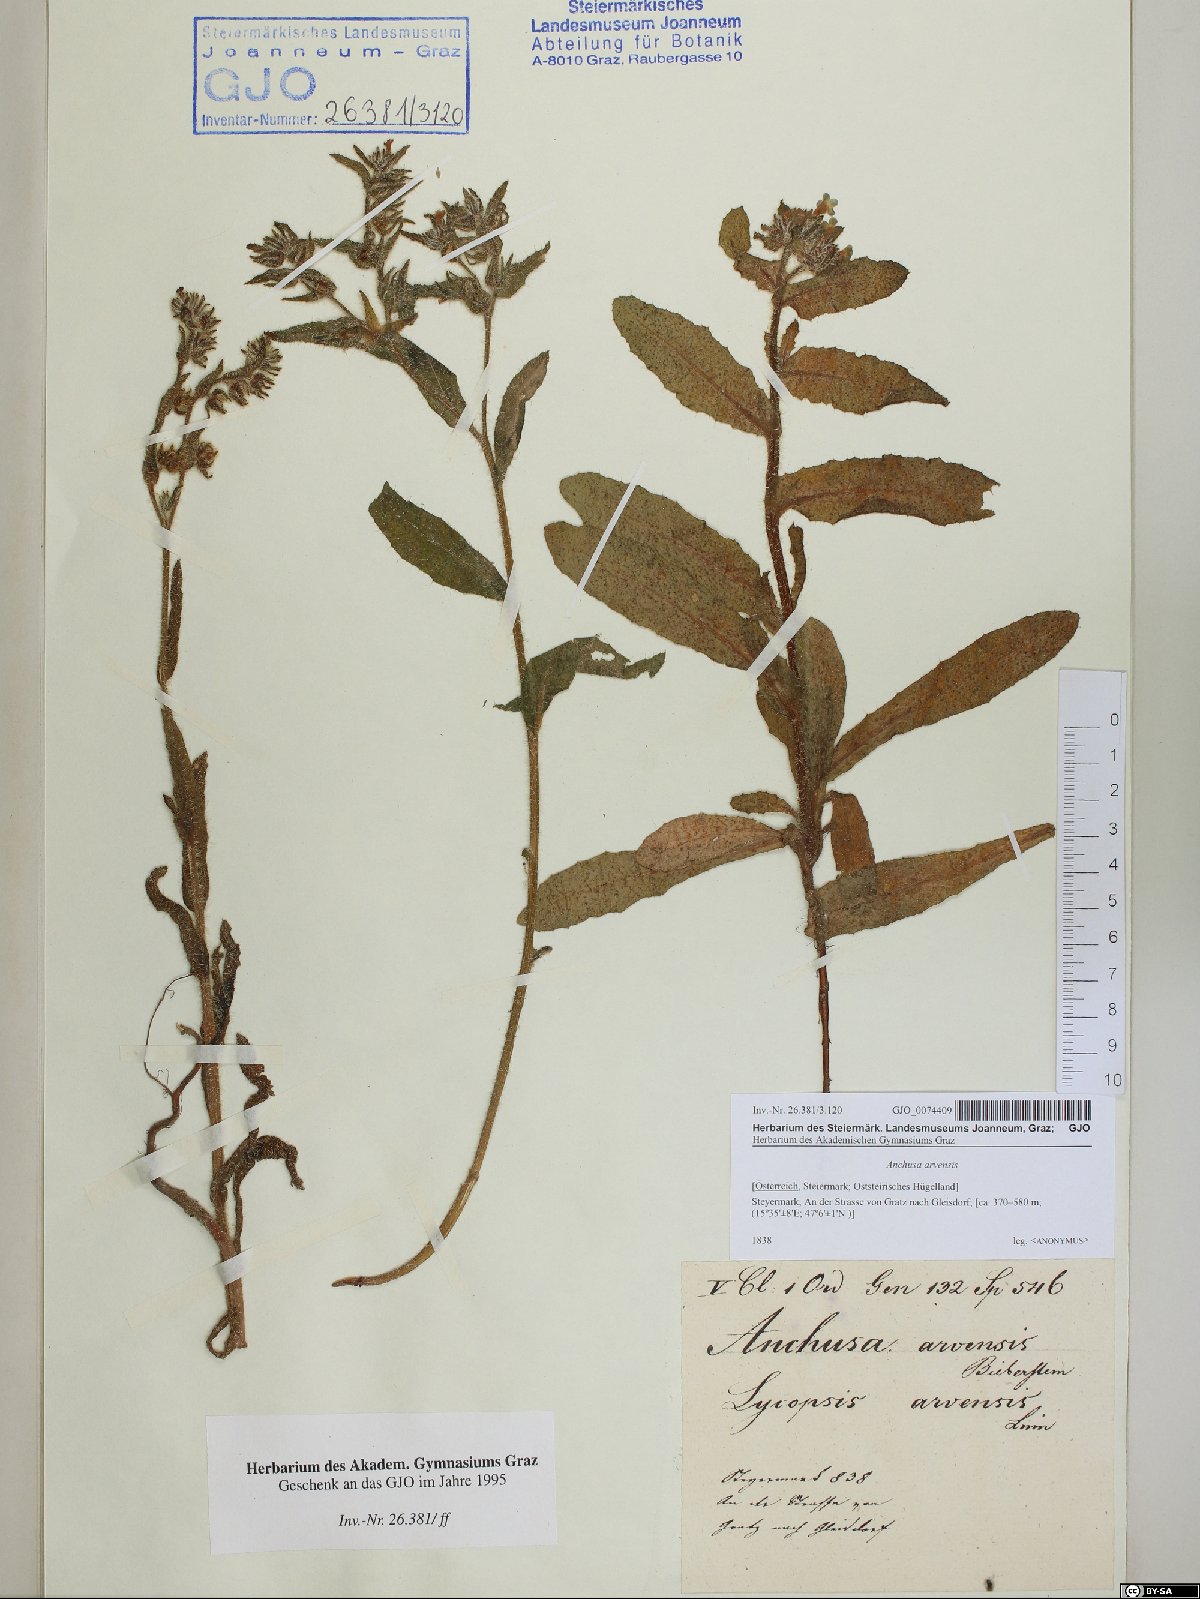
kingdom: Plantae
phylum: Tracheophyta
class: Magnoliopsida
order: Boraginales
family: Boraginaceae
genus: Lycopsis
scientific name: Lycopsis arvensis
